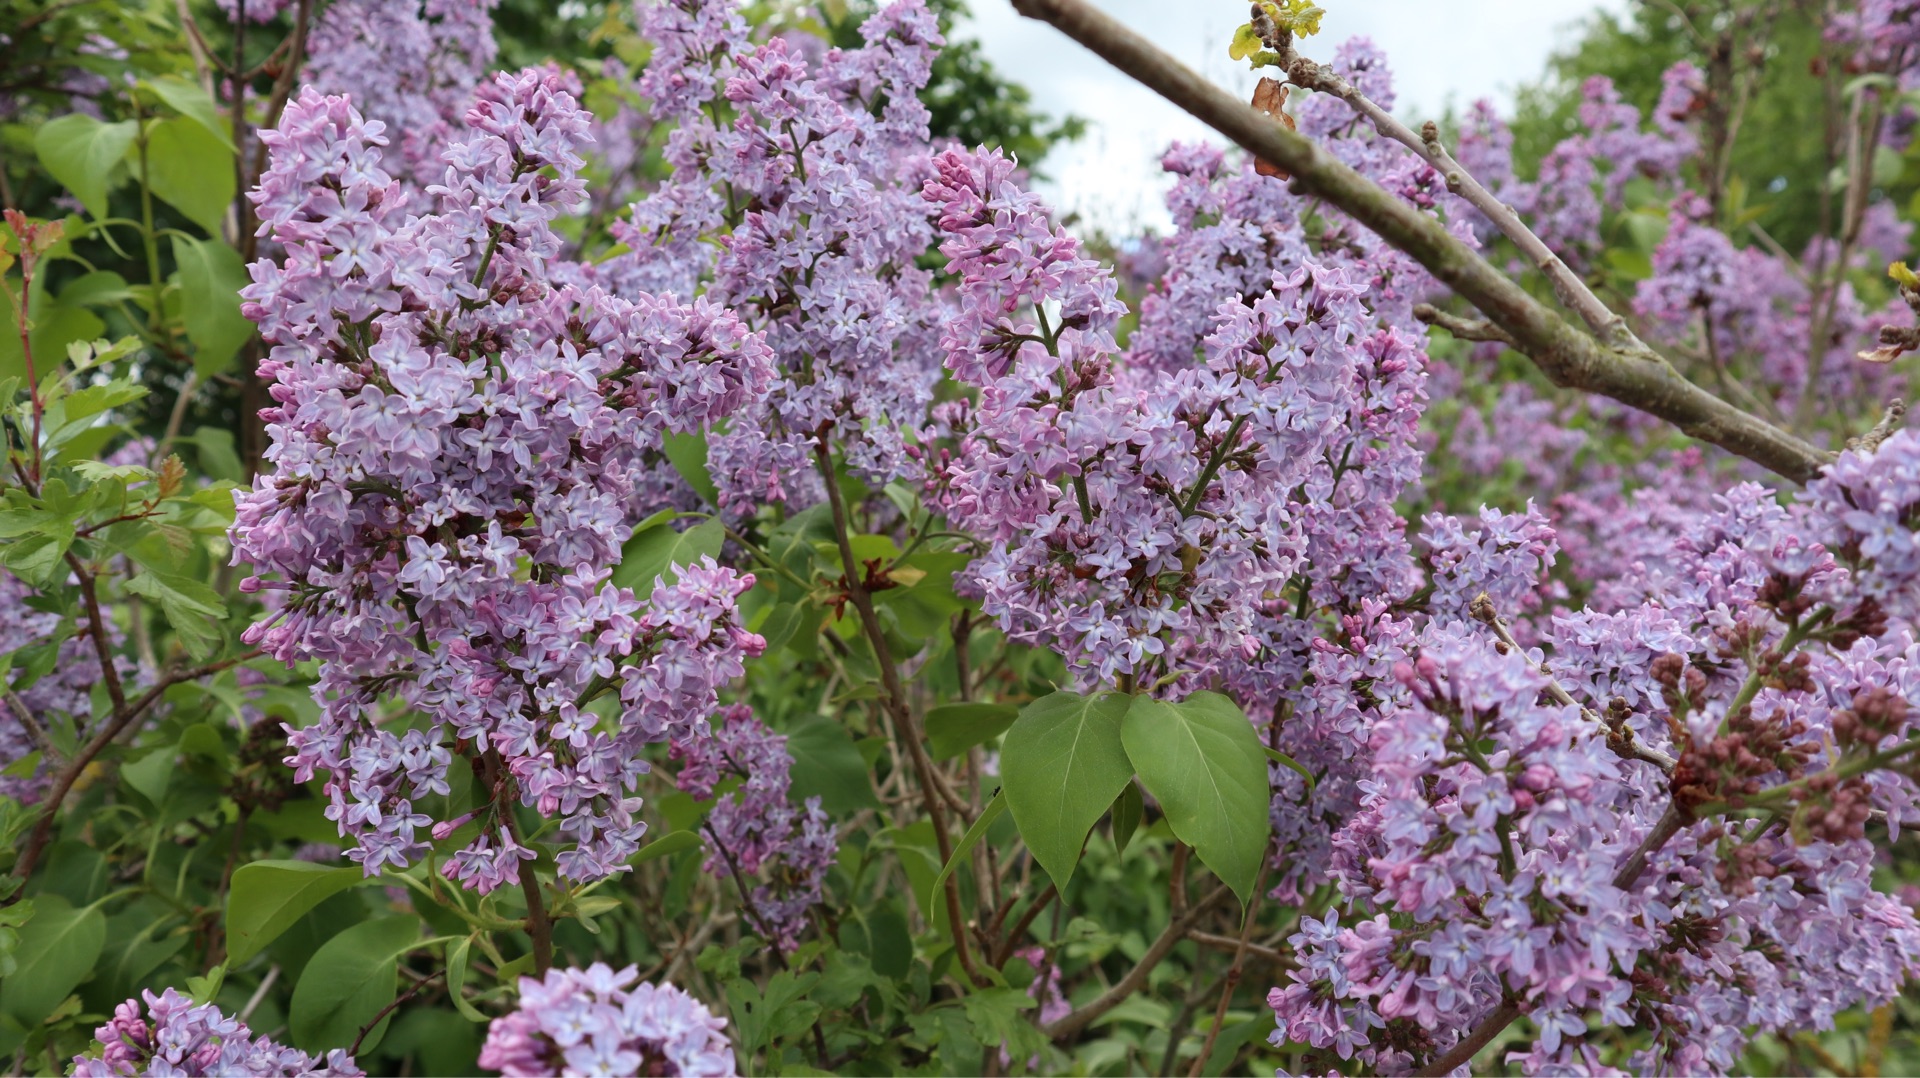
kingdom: Plantae
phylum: Tracheophyta
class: Magnoliopsida
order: Lamiales
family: Oleaceae
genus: Syringa
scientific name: Syringa vulgaris
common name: Syren
